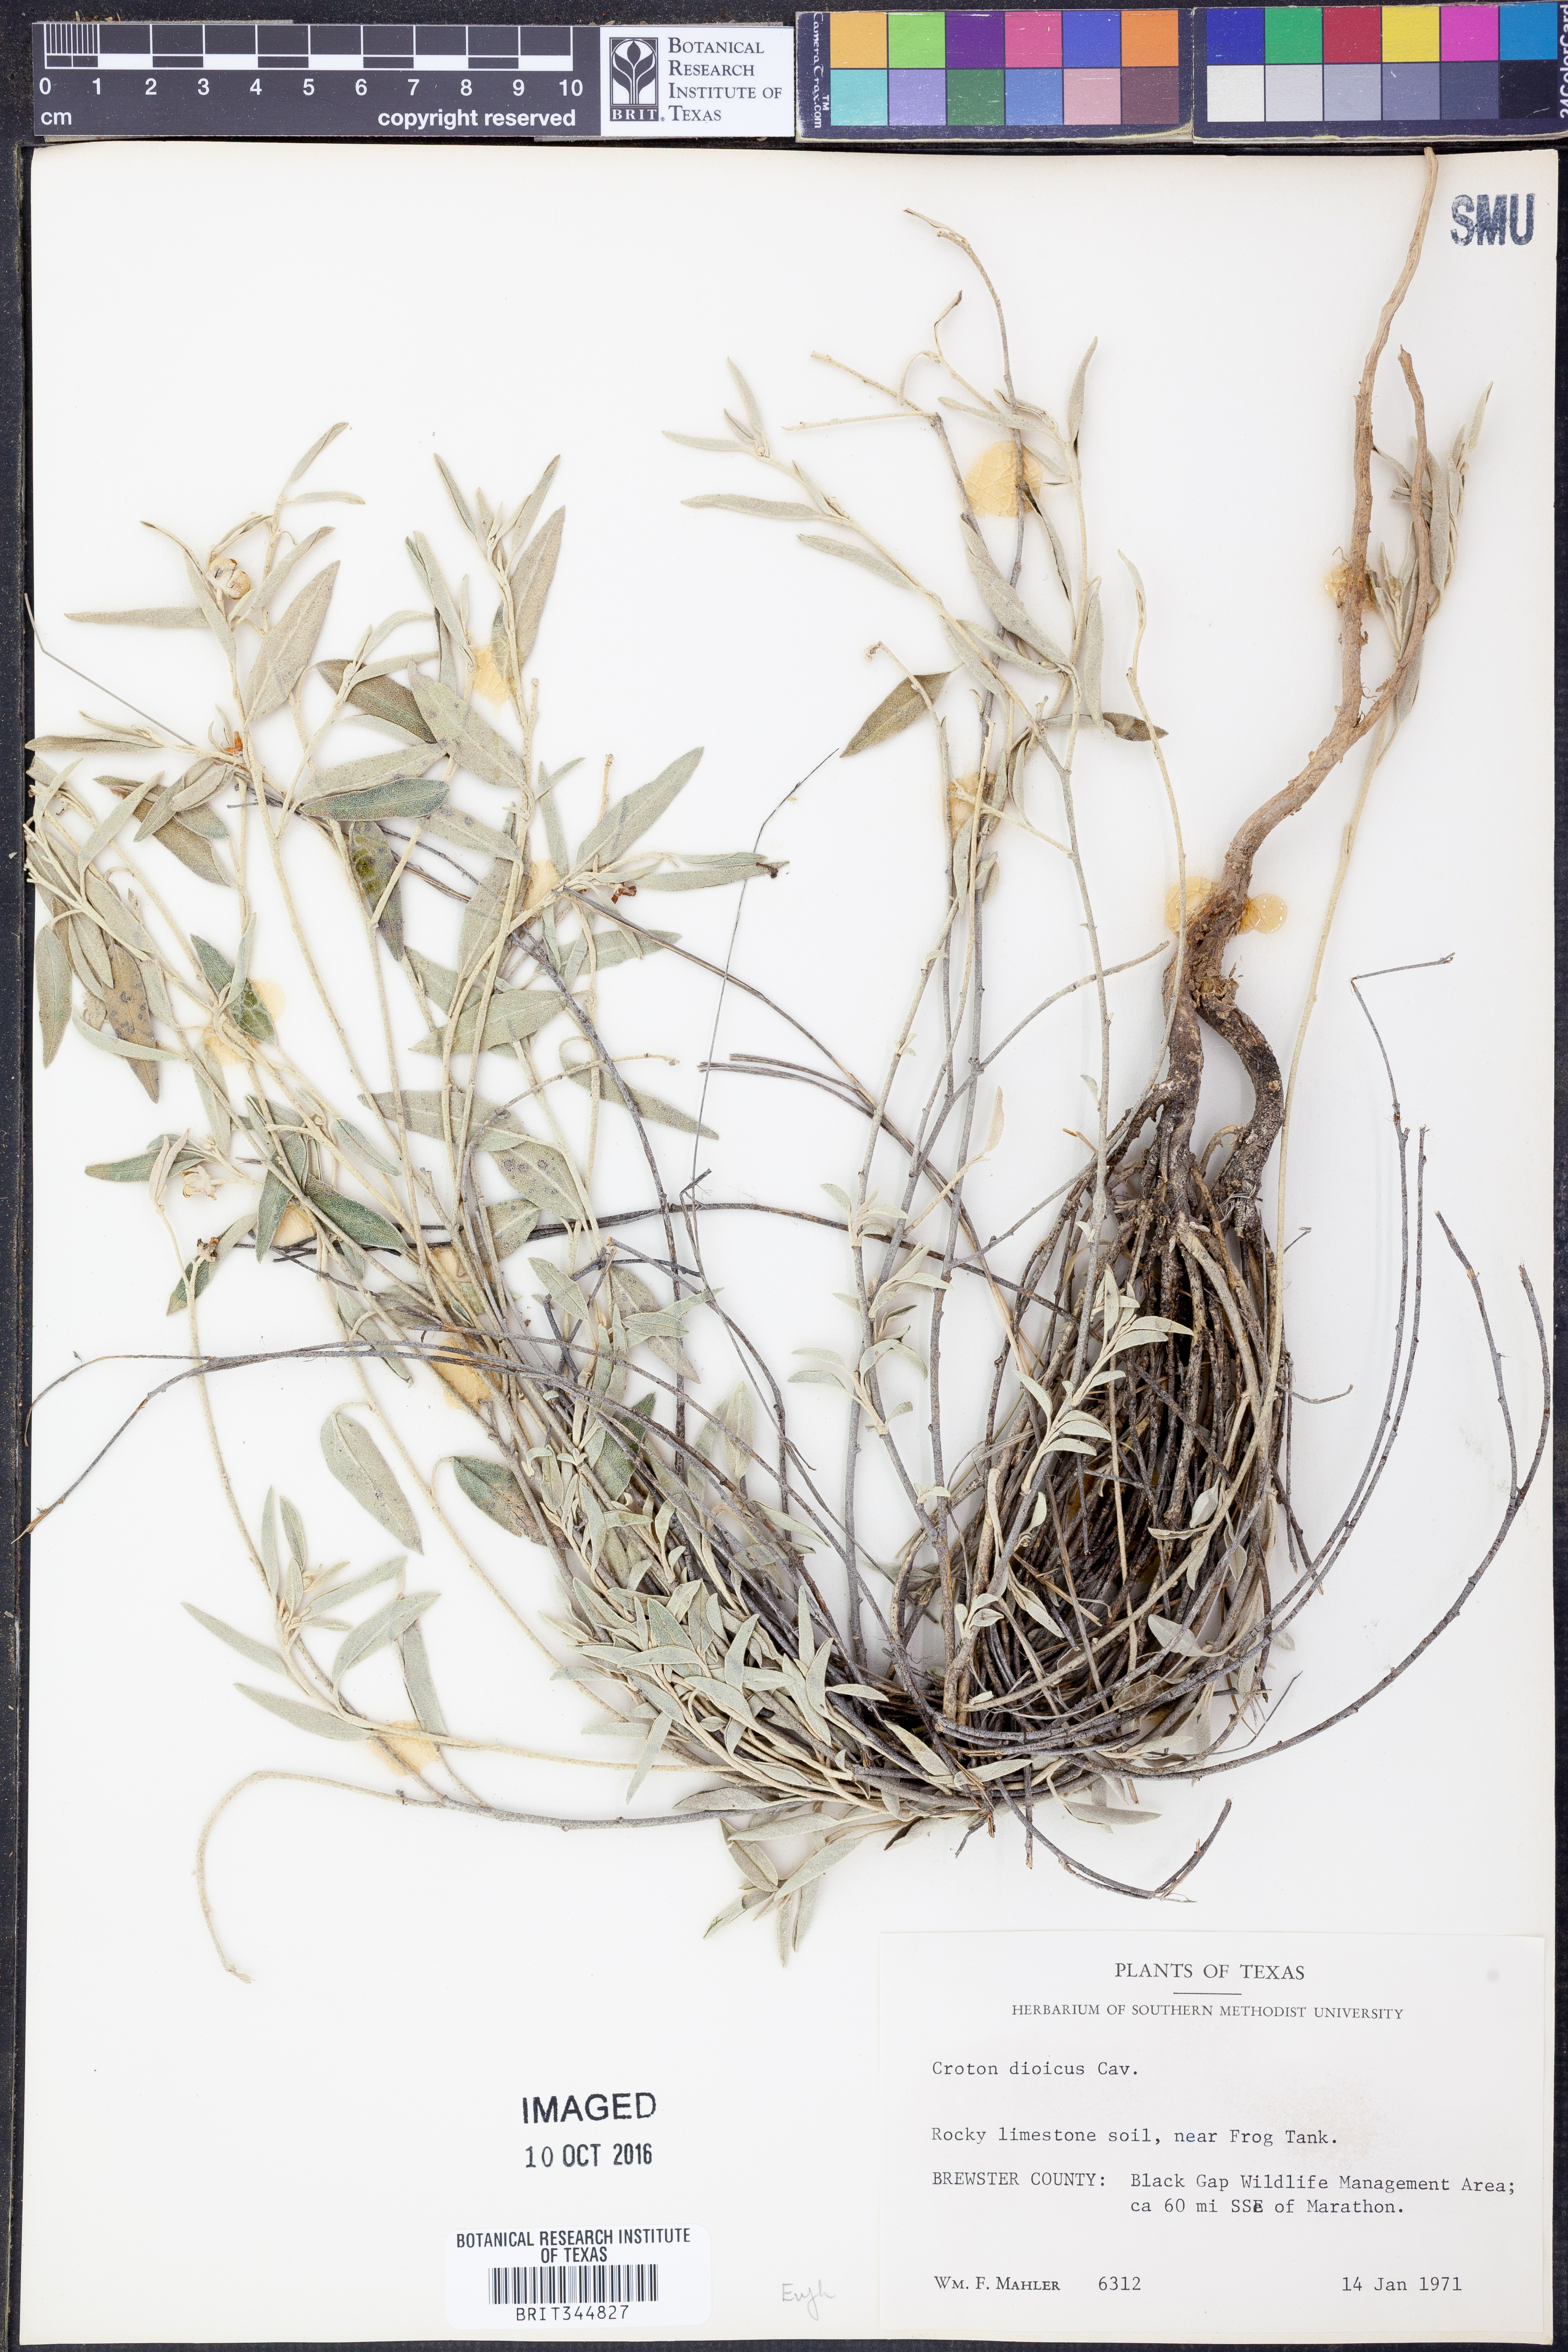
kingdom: Plantae
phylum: Tracheophyta
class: Magnoliopsida
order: Malpighiales
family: Euphorbiaceae
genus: Croton
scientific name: Croton dioicus
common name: Grassland croton
